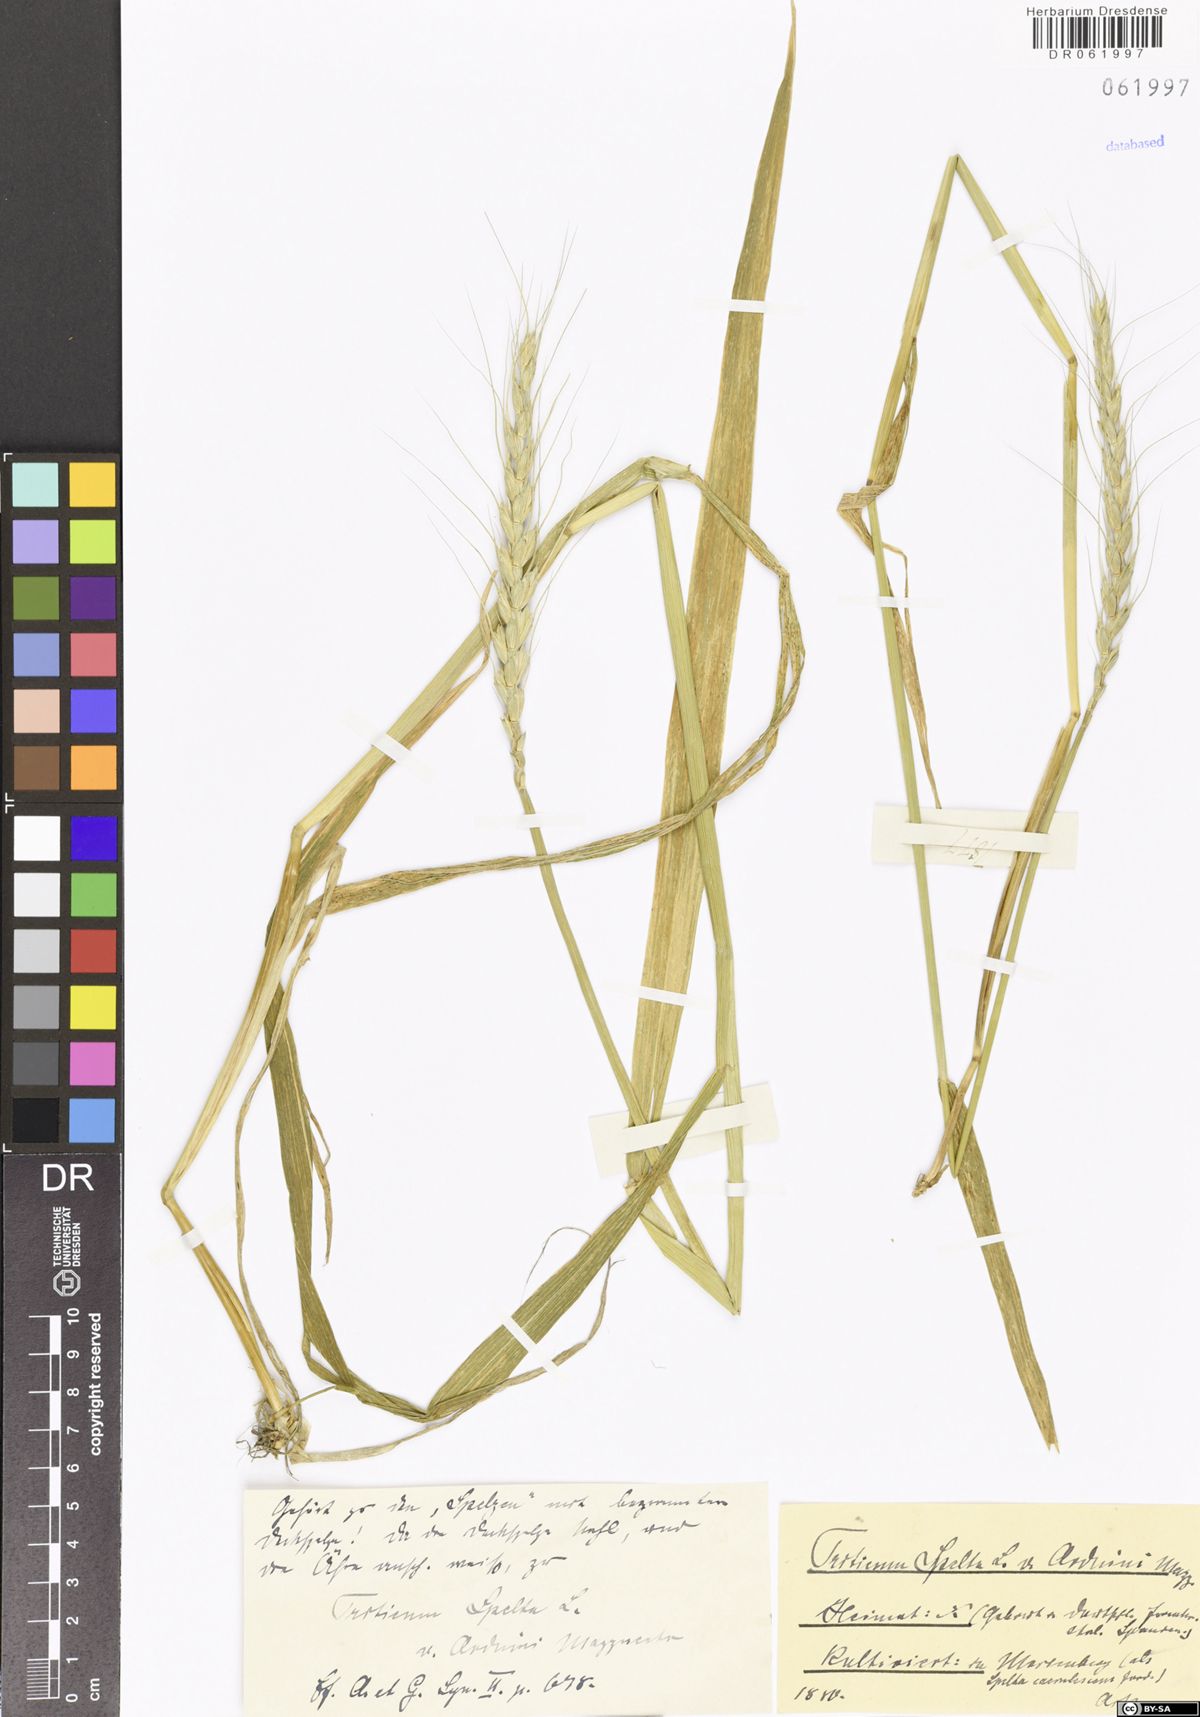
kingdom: Plantae
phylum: Tracheophyta
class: Liliopsida
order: Poales
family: Poaceae
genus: Triticum
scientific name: Triticum aestivum
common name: Common wheat
